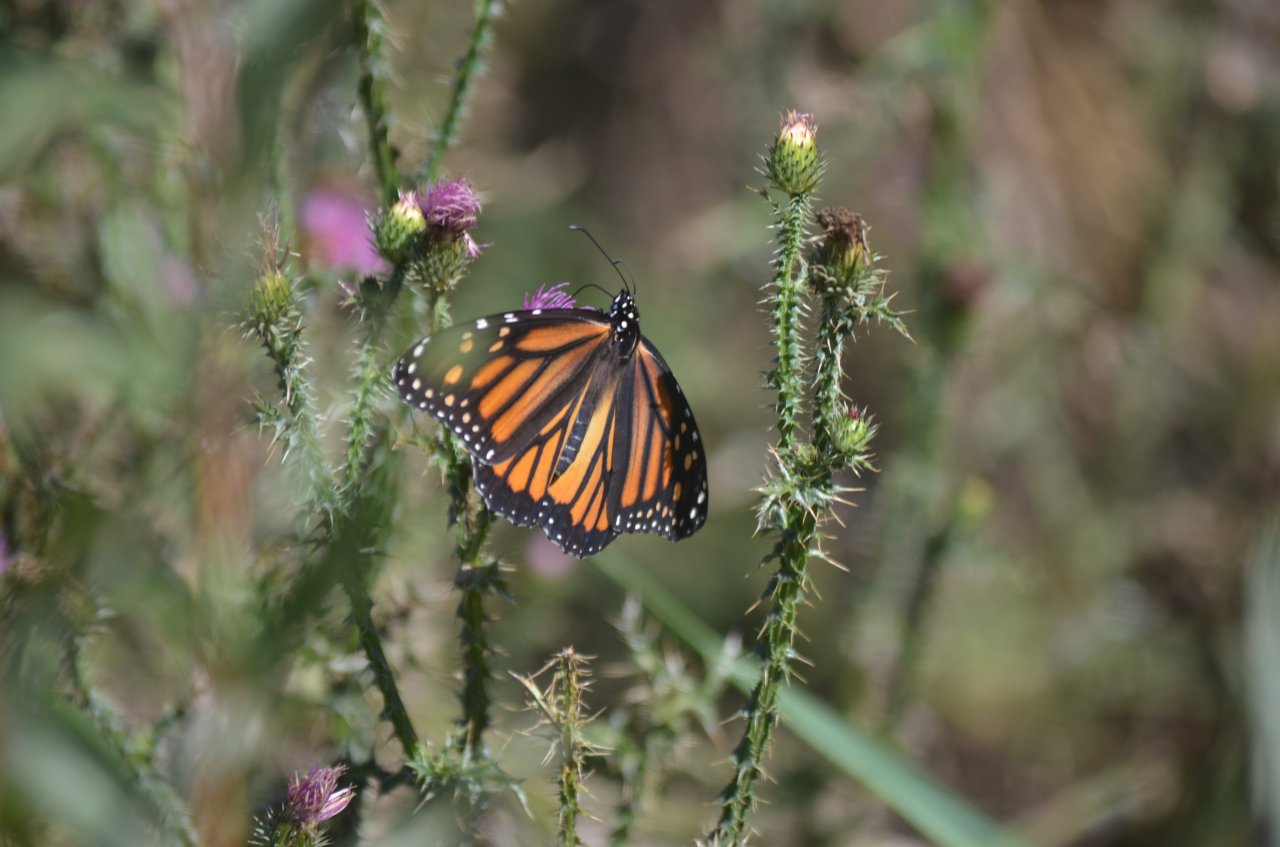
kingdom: Animalia
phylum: Arthropoda
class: Insecta
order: Lepidoptera
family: Nymphalidae
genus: Danaus
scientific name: Danaus plexippus
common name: Monarch
